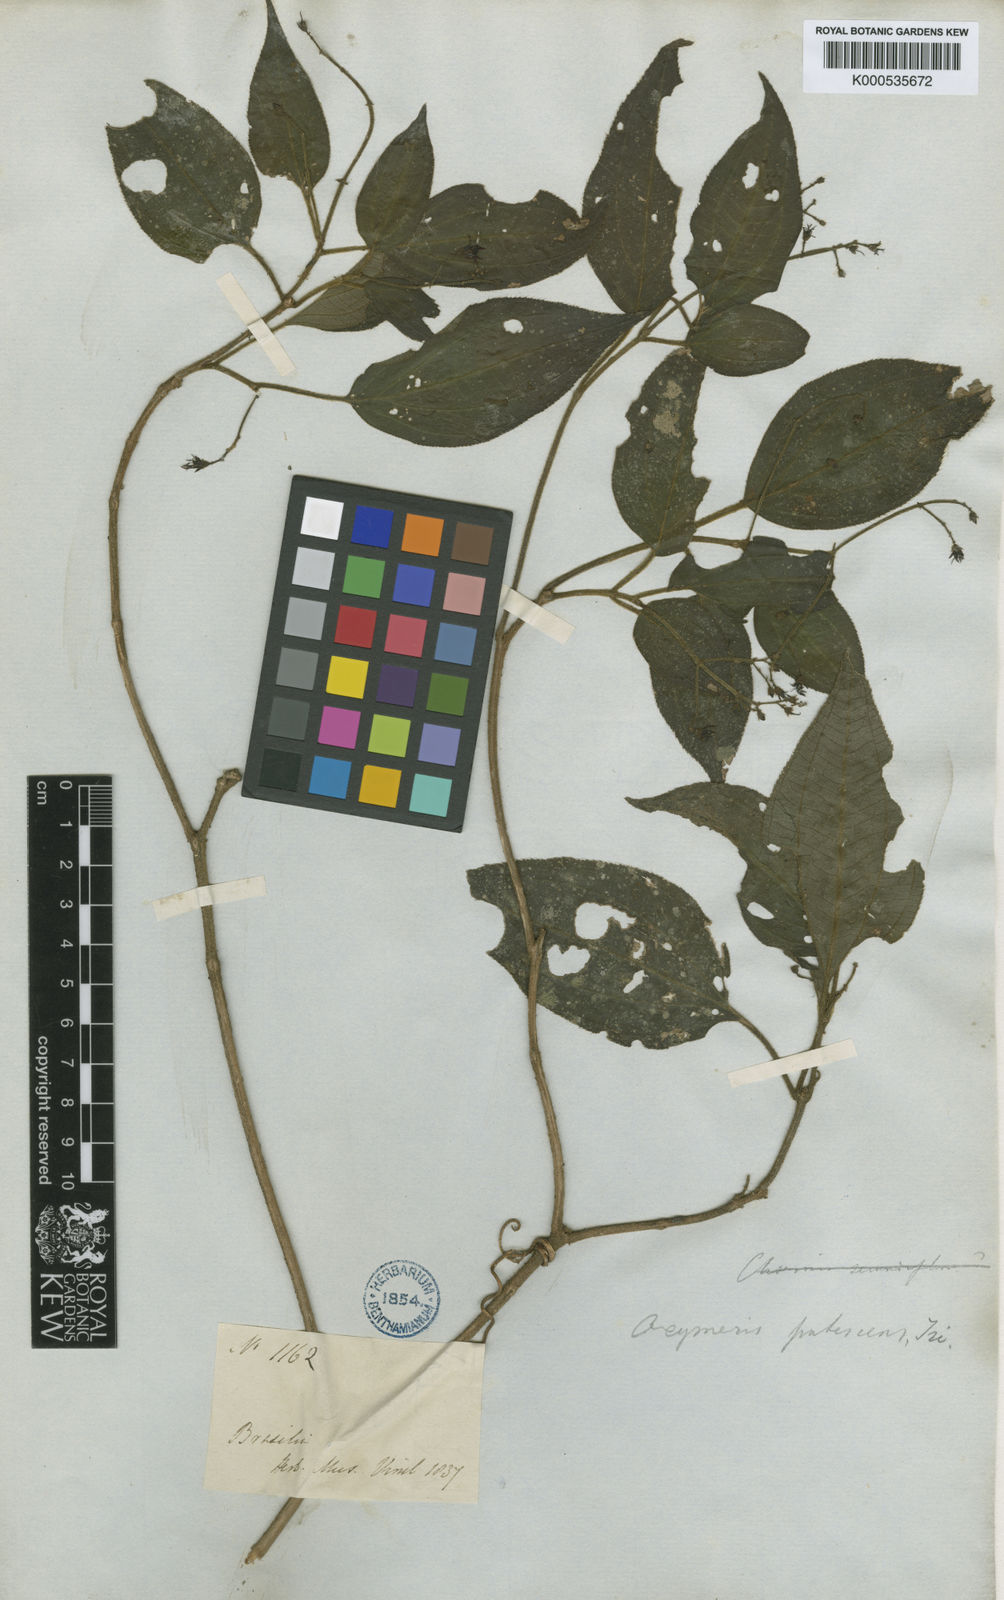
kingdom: Plantae
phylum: Tracheophyta
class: Magnoliopsida
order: Myrtales
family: Melastomataceae
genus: Miconia
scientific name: Miconia strigilliflora
